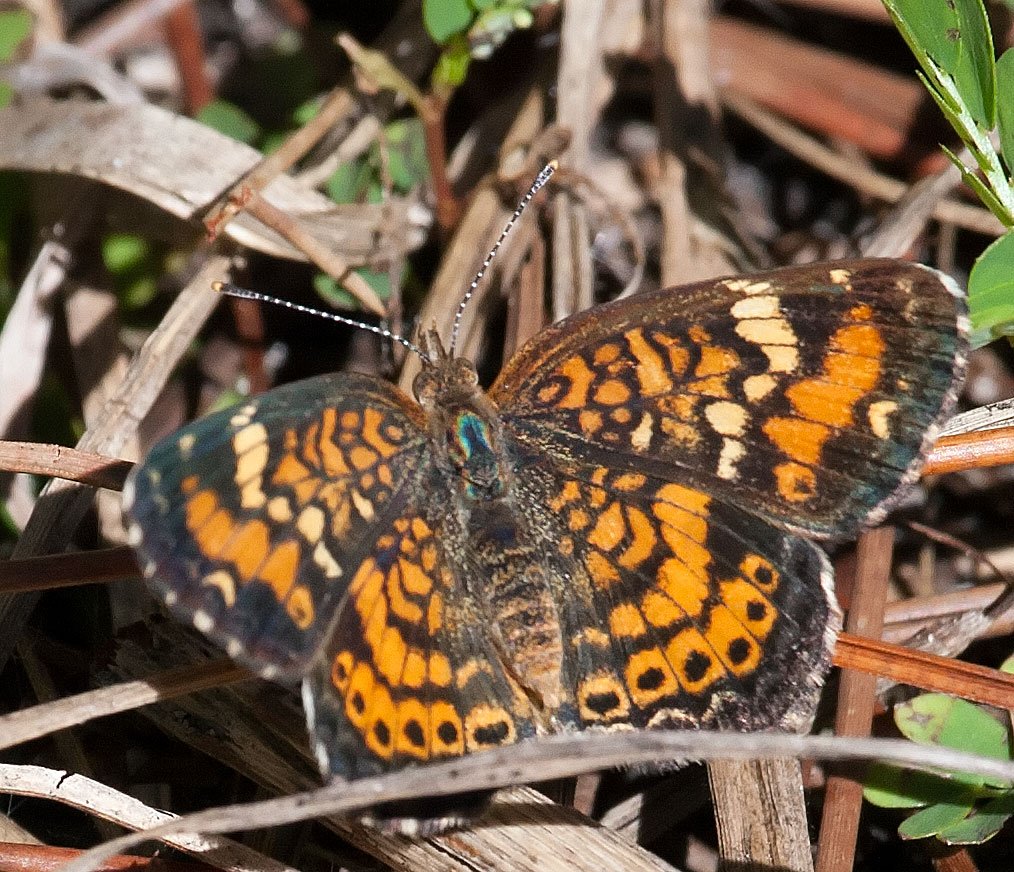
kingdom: Animalia
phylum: Arthropoda
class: Insecta
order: Lepidoptera
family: Nymphalidae
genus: Phyciodes
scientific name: Phyciodes phaon
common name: Phaon Crescent
